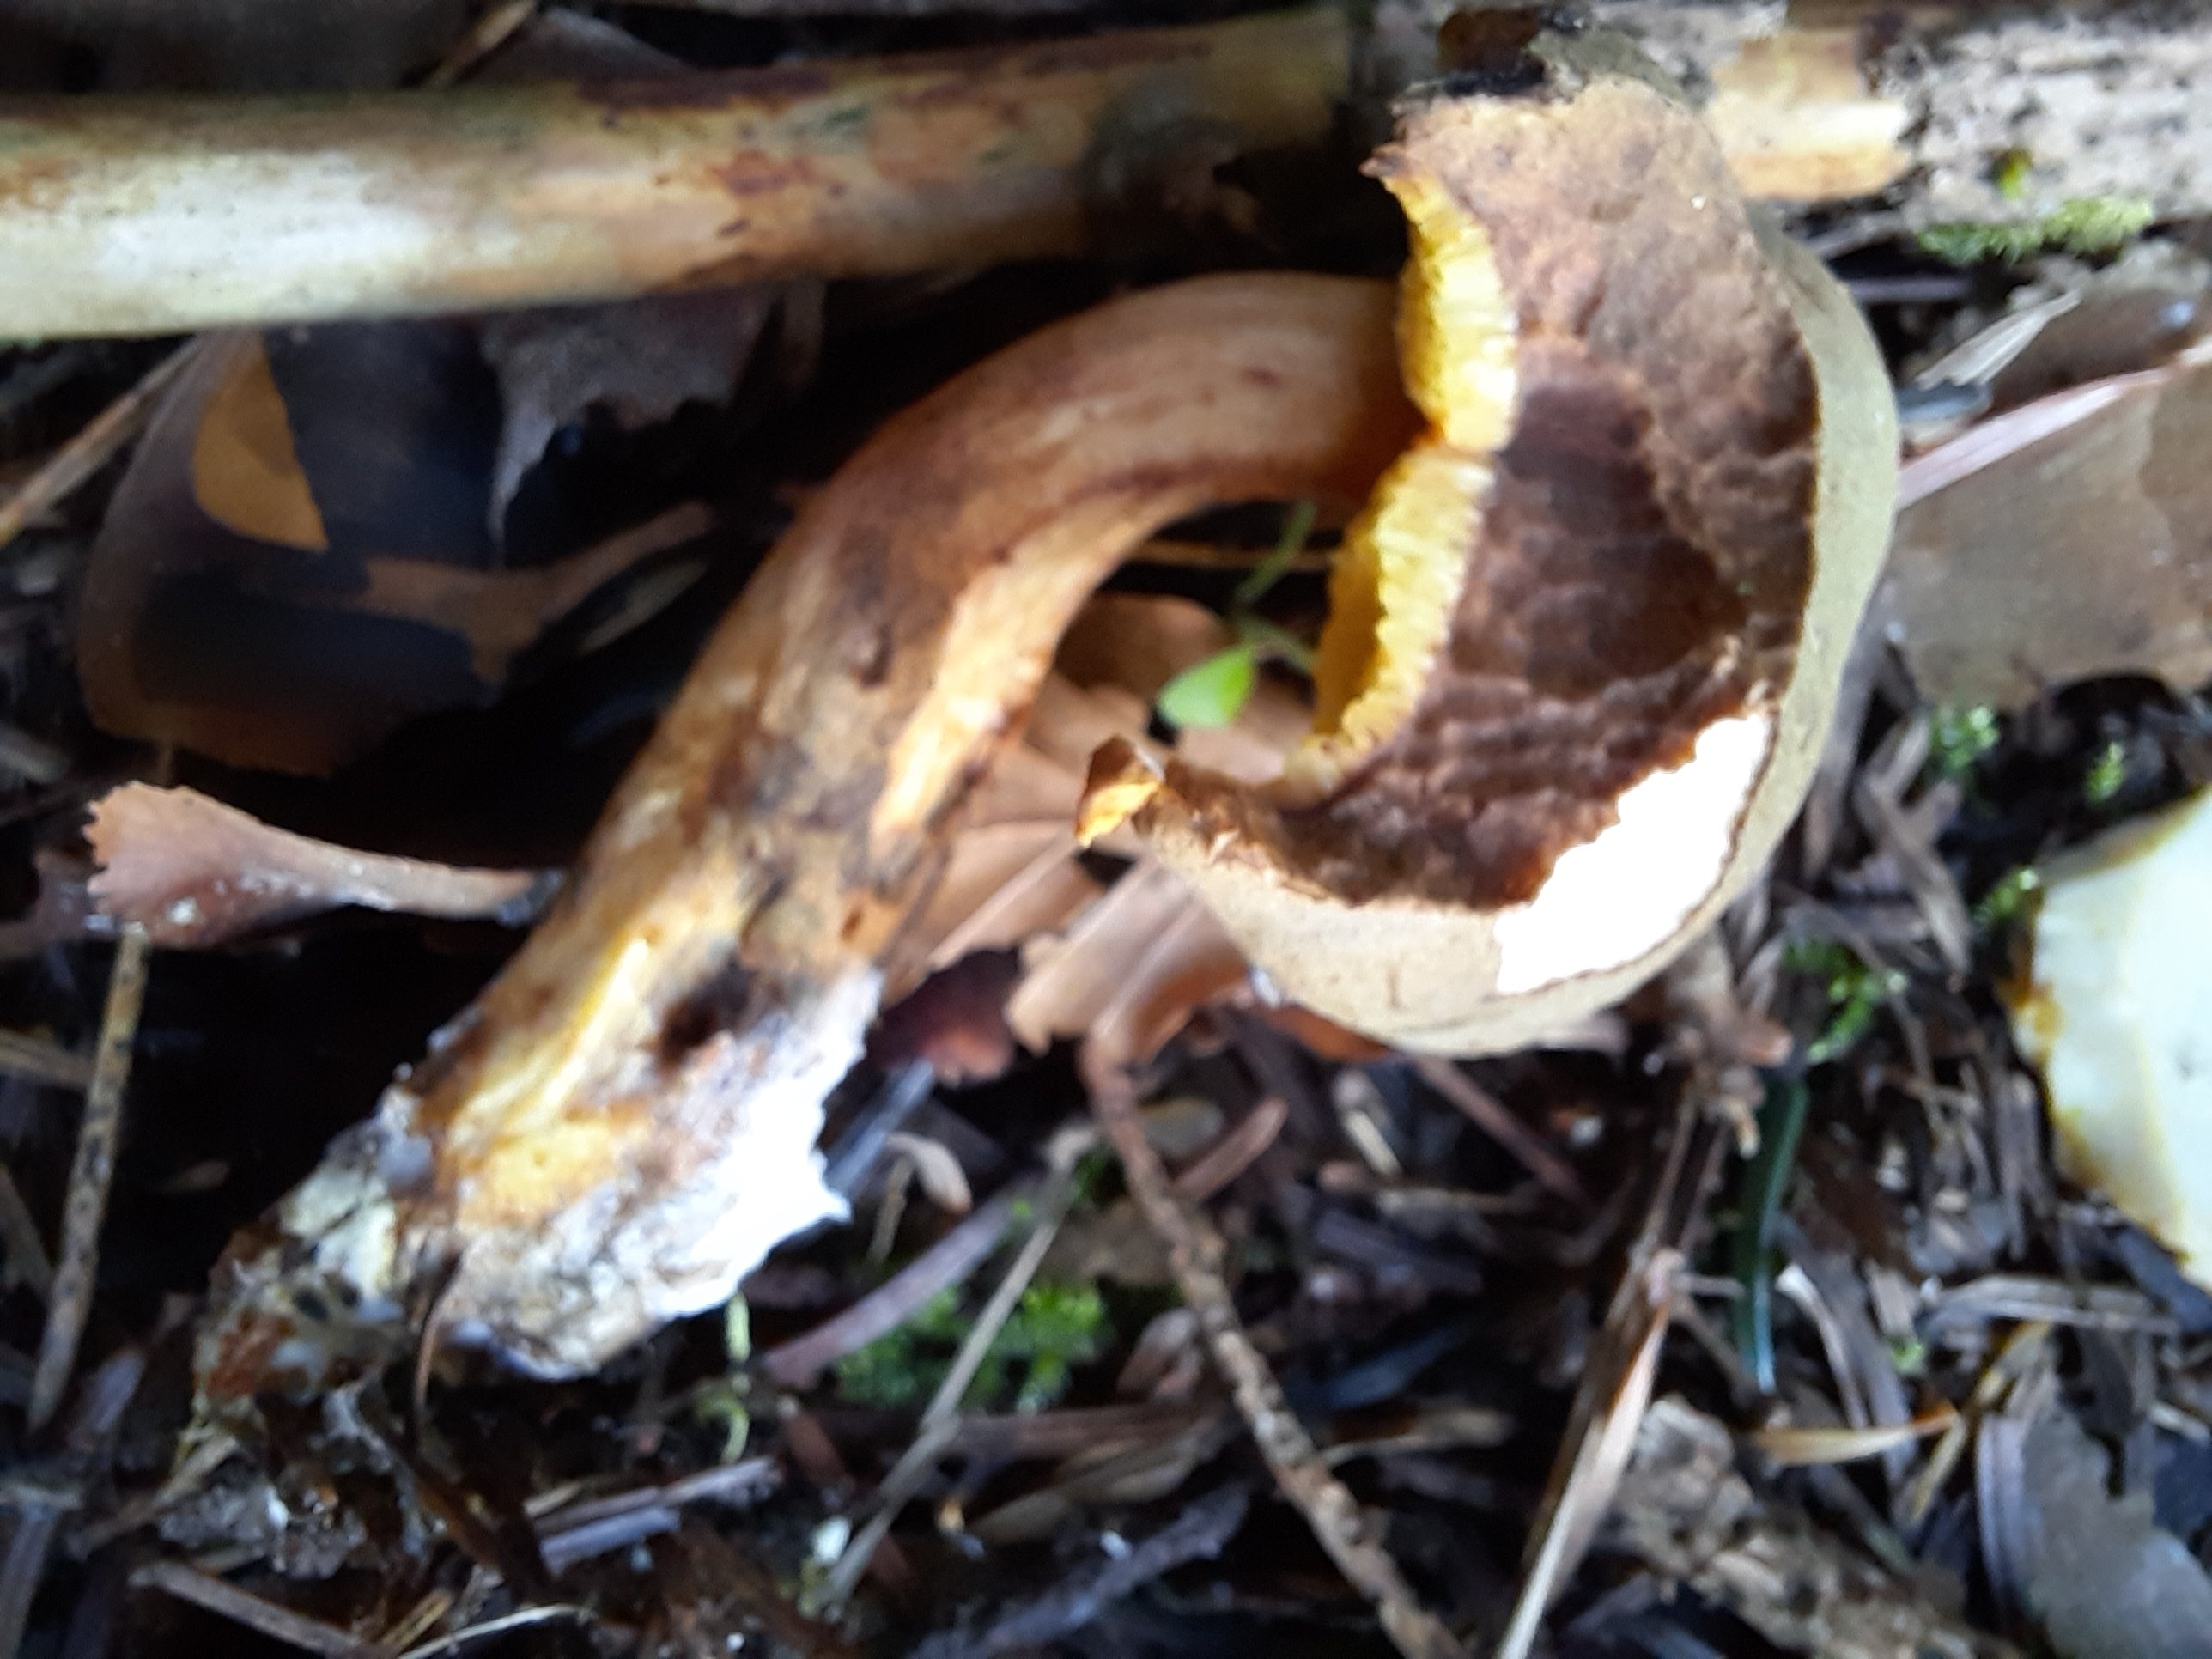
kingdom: Fungi
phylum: Basidiomycota
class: Agaricomycetes
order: Boletales
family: Boletaceae
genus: Xerocomus
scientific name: Xerocomus ferrugineus
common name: vaskeskinds-rørhat
